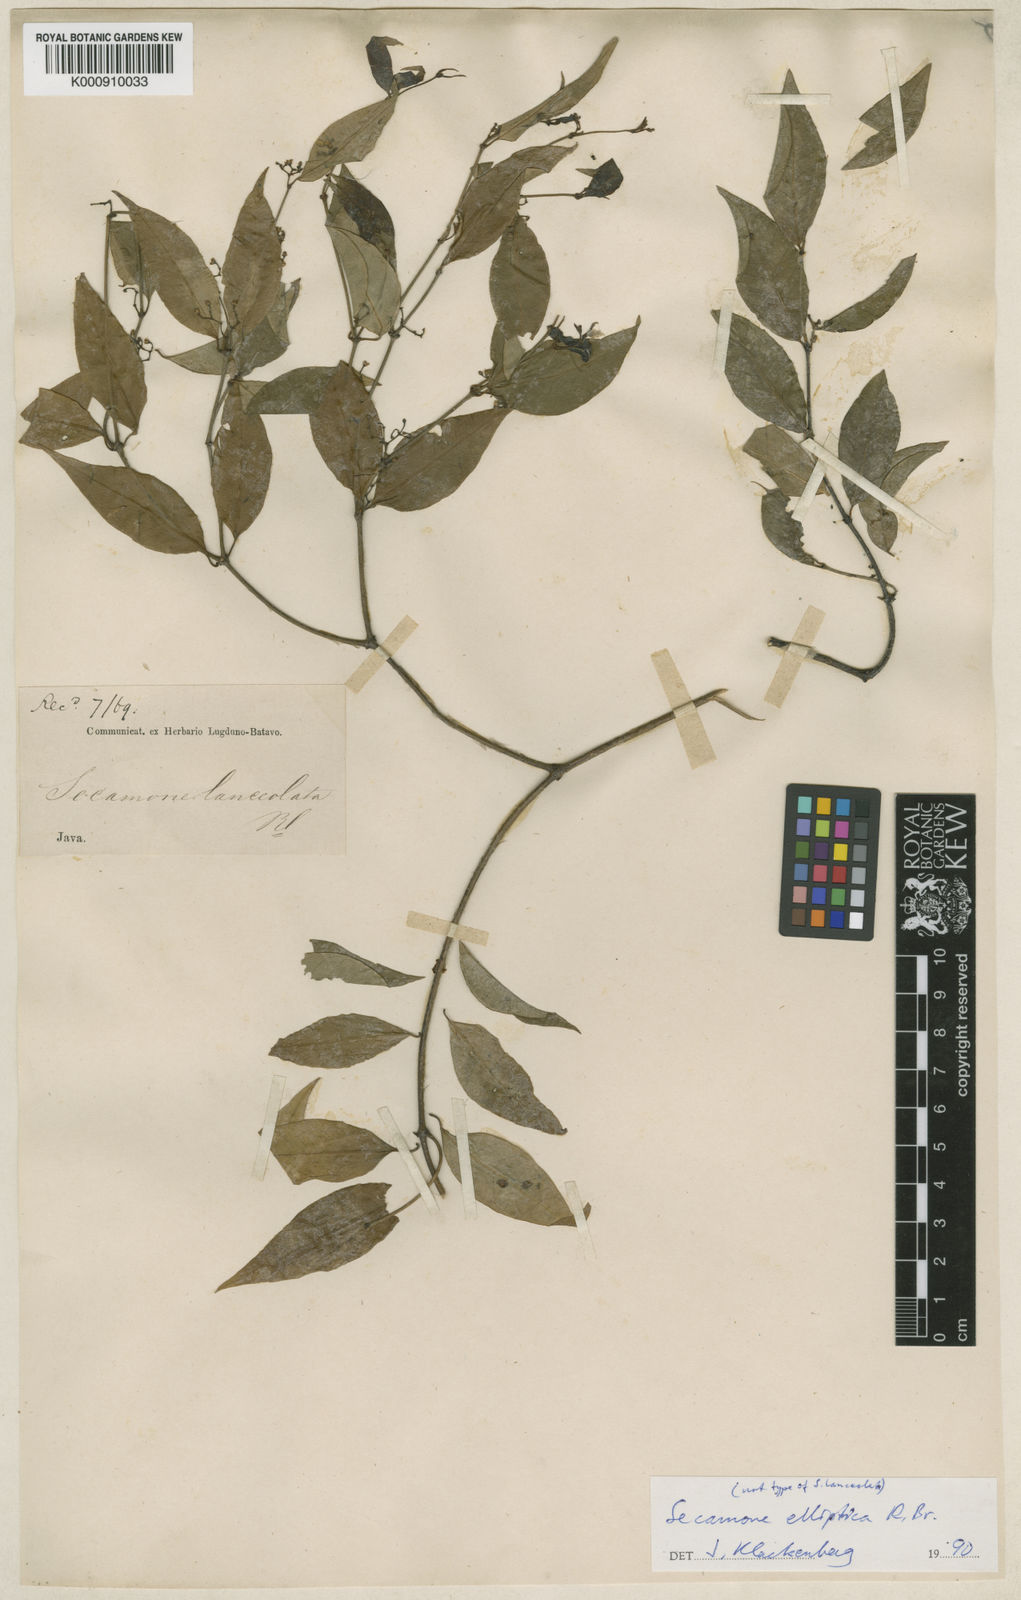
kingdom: Plantae
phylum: Tracheophyta
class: Magnoliopsida
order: Gentianales
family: Apocynaceae
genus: Secamone
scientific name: Secamone elliptica
